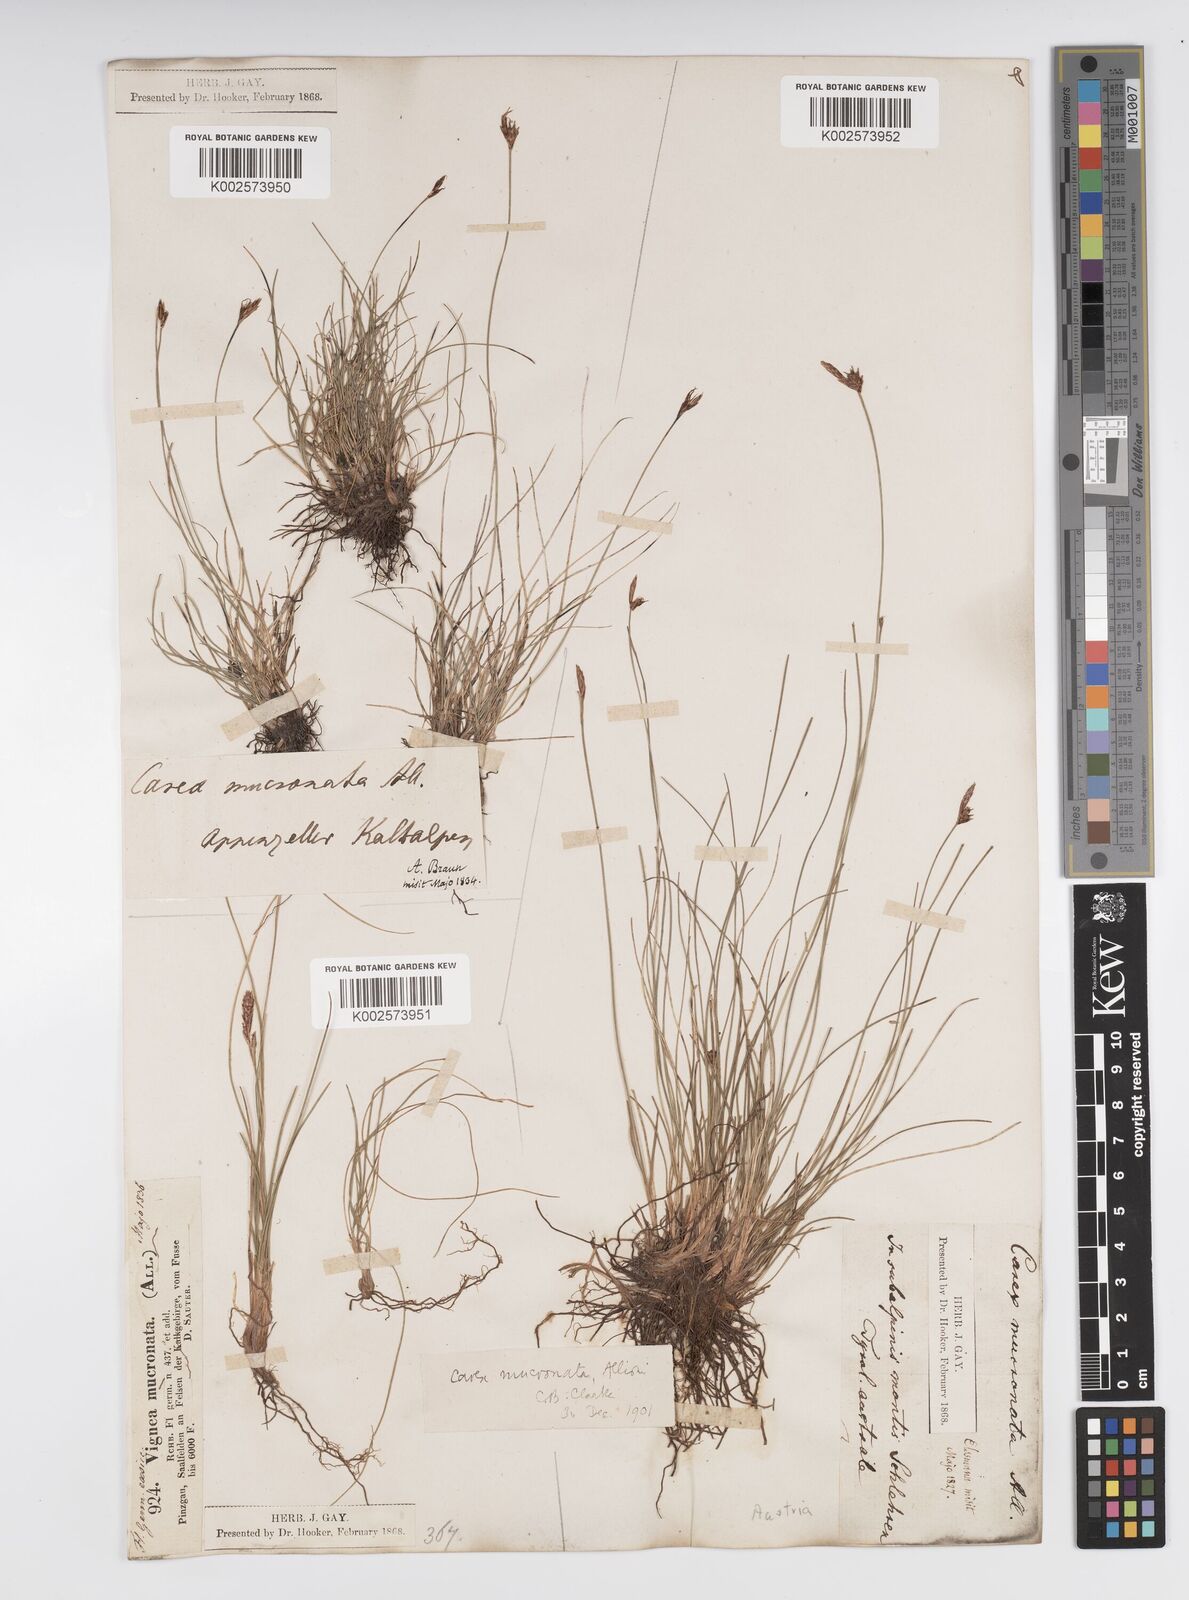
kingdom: Plantae
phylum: Tracheophyta
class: Liliopsida
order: Poales
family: Cyperaceae
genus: Carex
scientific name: Carex mucronata
